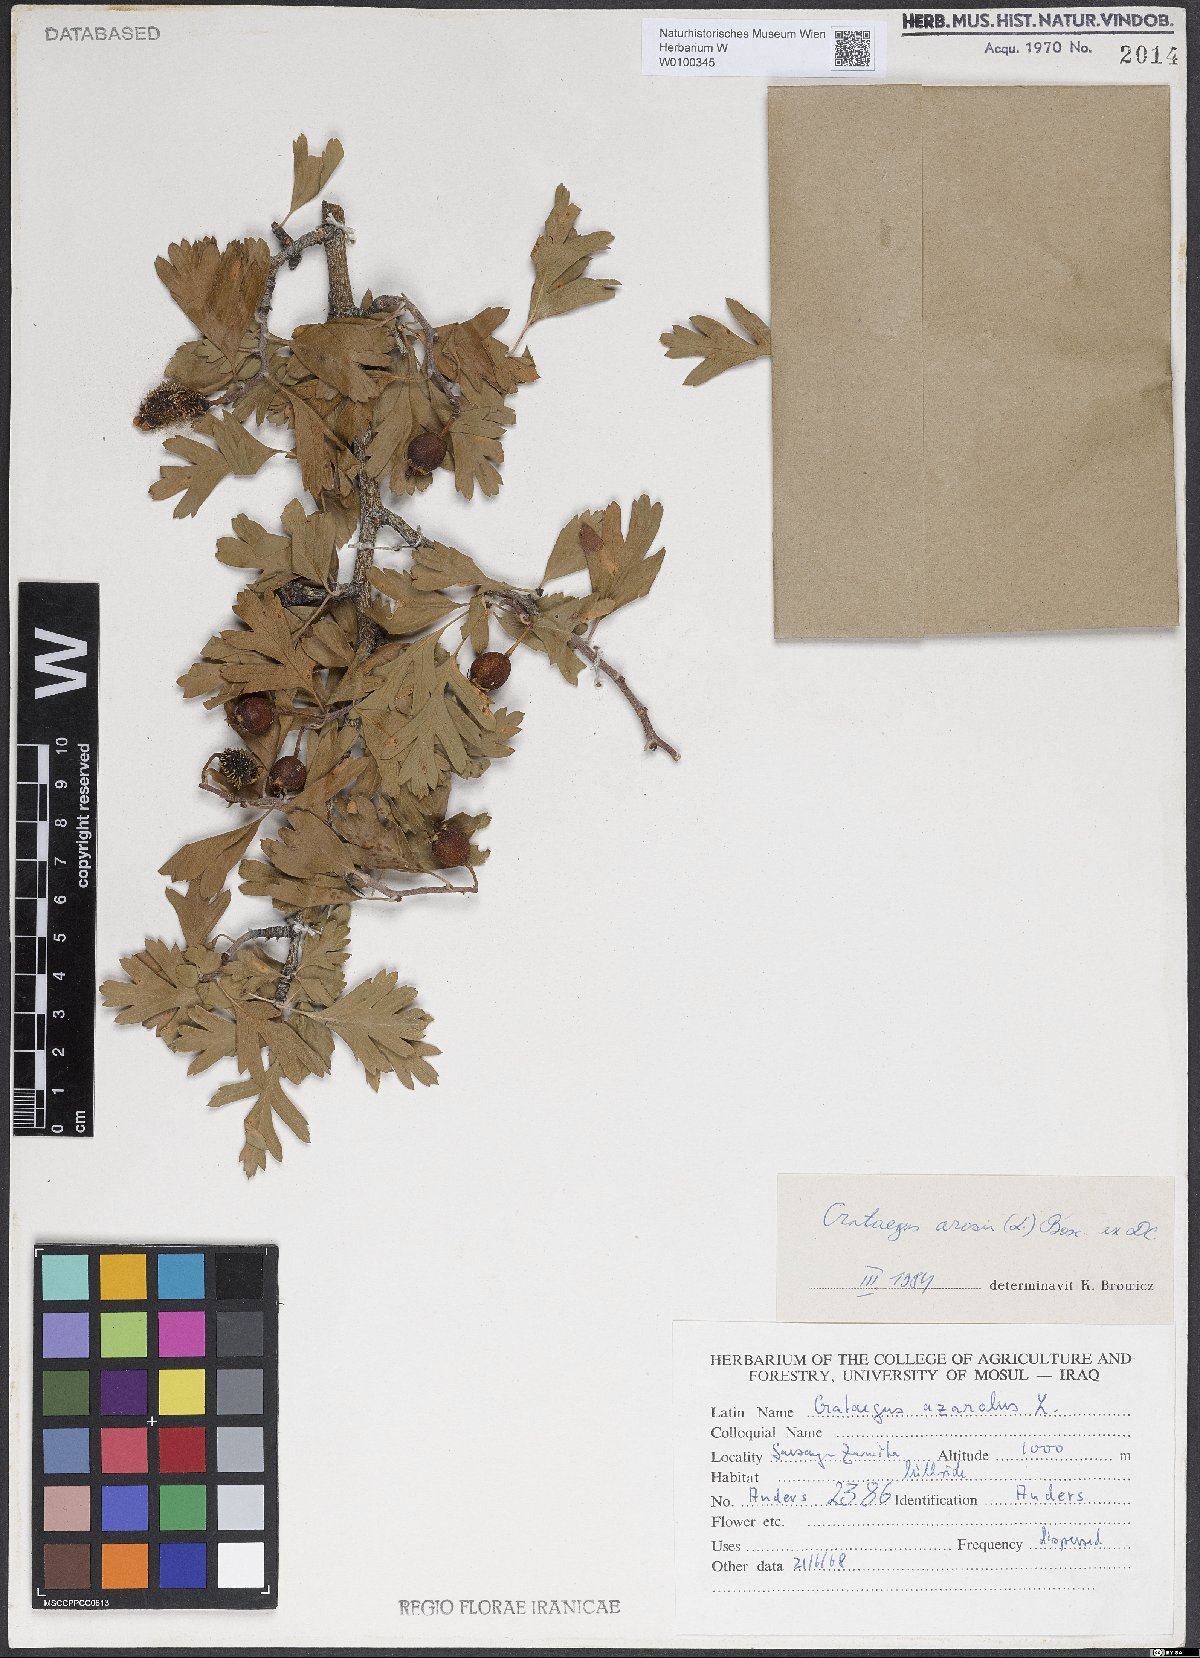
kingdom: Plantae
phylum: Tracheophyta
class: Magnoliopsida
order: Rosales
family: Rosaceae
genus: Crataegus
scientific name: Crataegus azarolus
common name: Azarole
